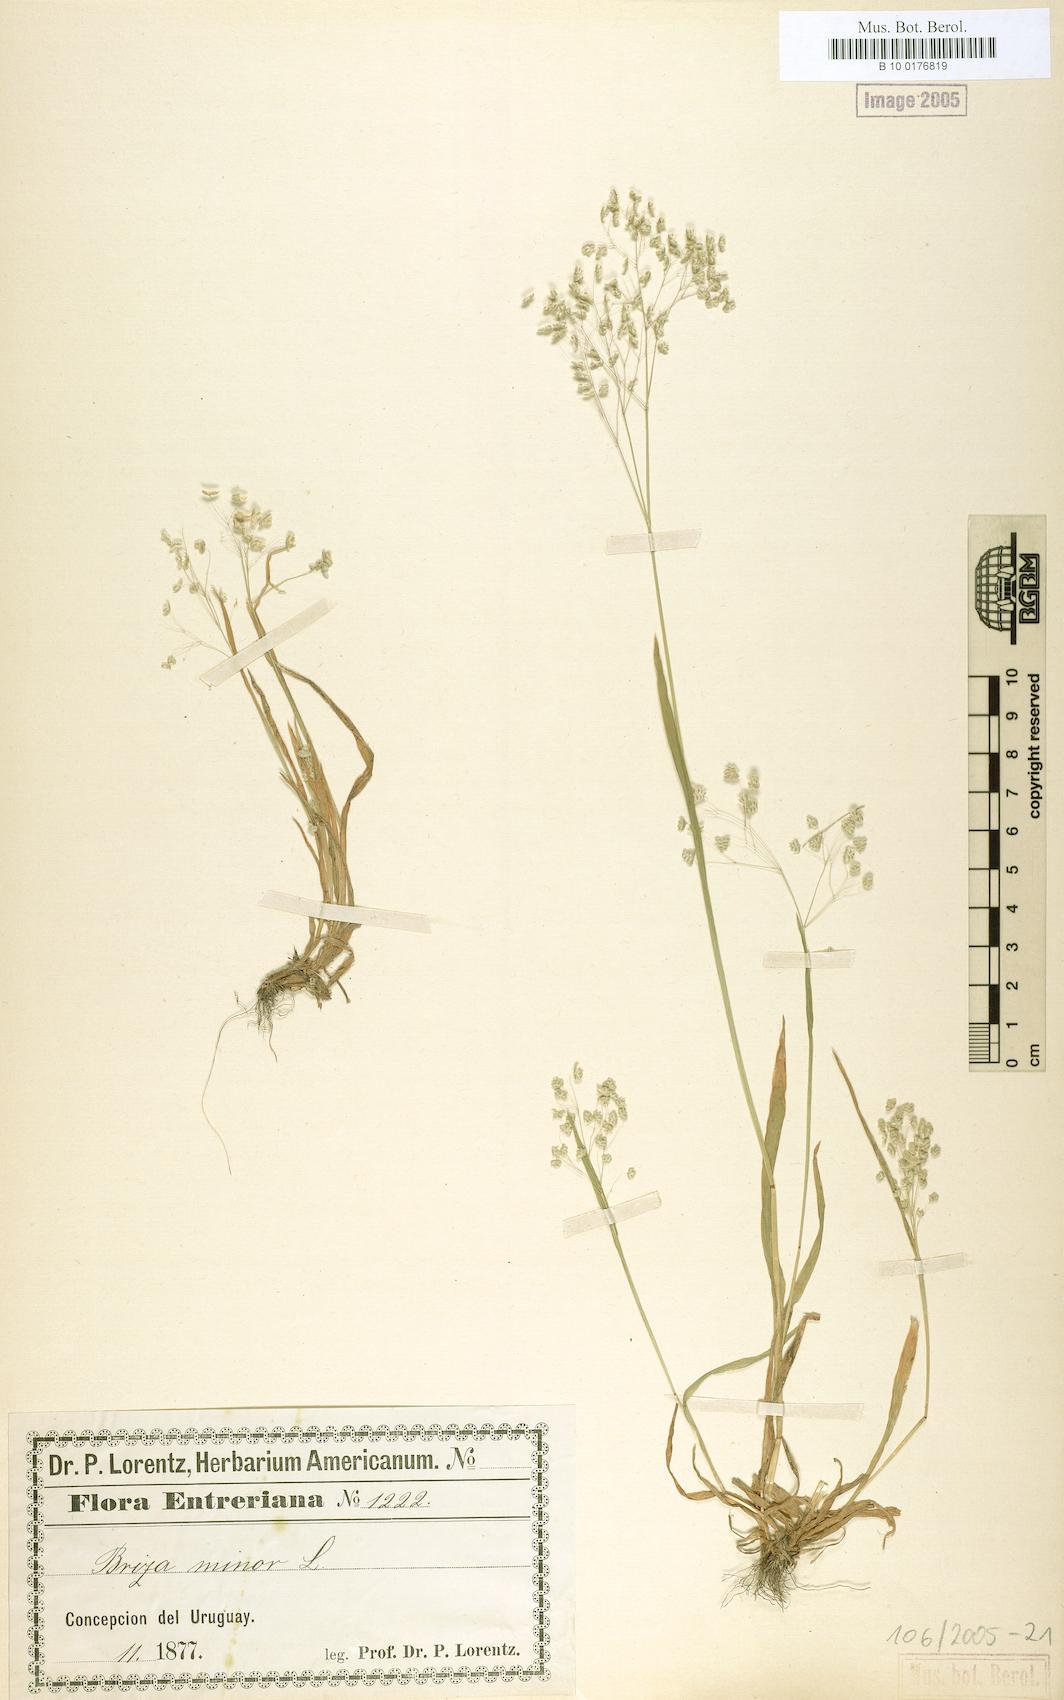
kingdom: Plantae
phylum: Tracheophyta
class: Liliopsida
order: Poales
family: Poaceae
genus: Briza
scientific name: Briza minor
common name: Lesser quaking-grass
